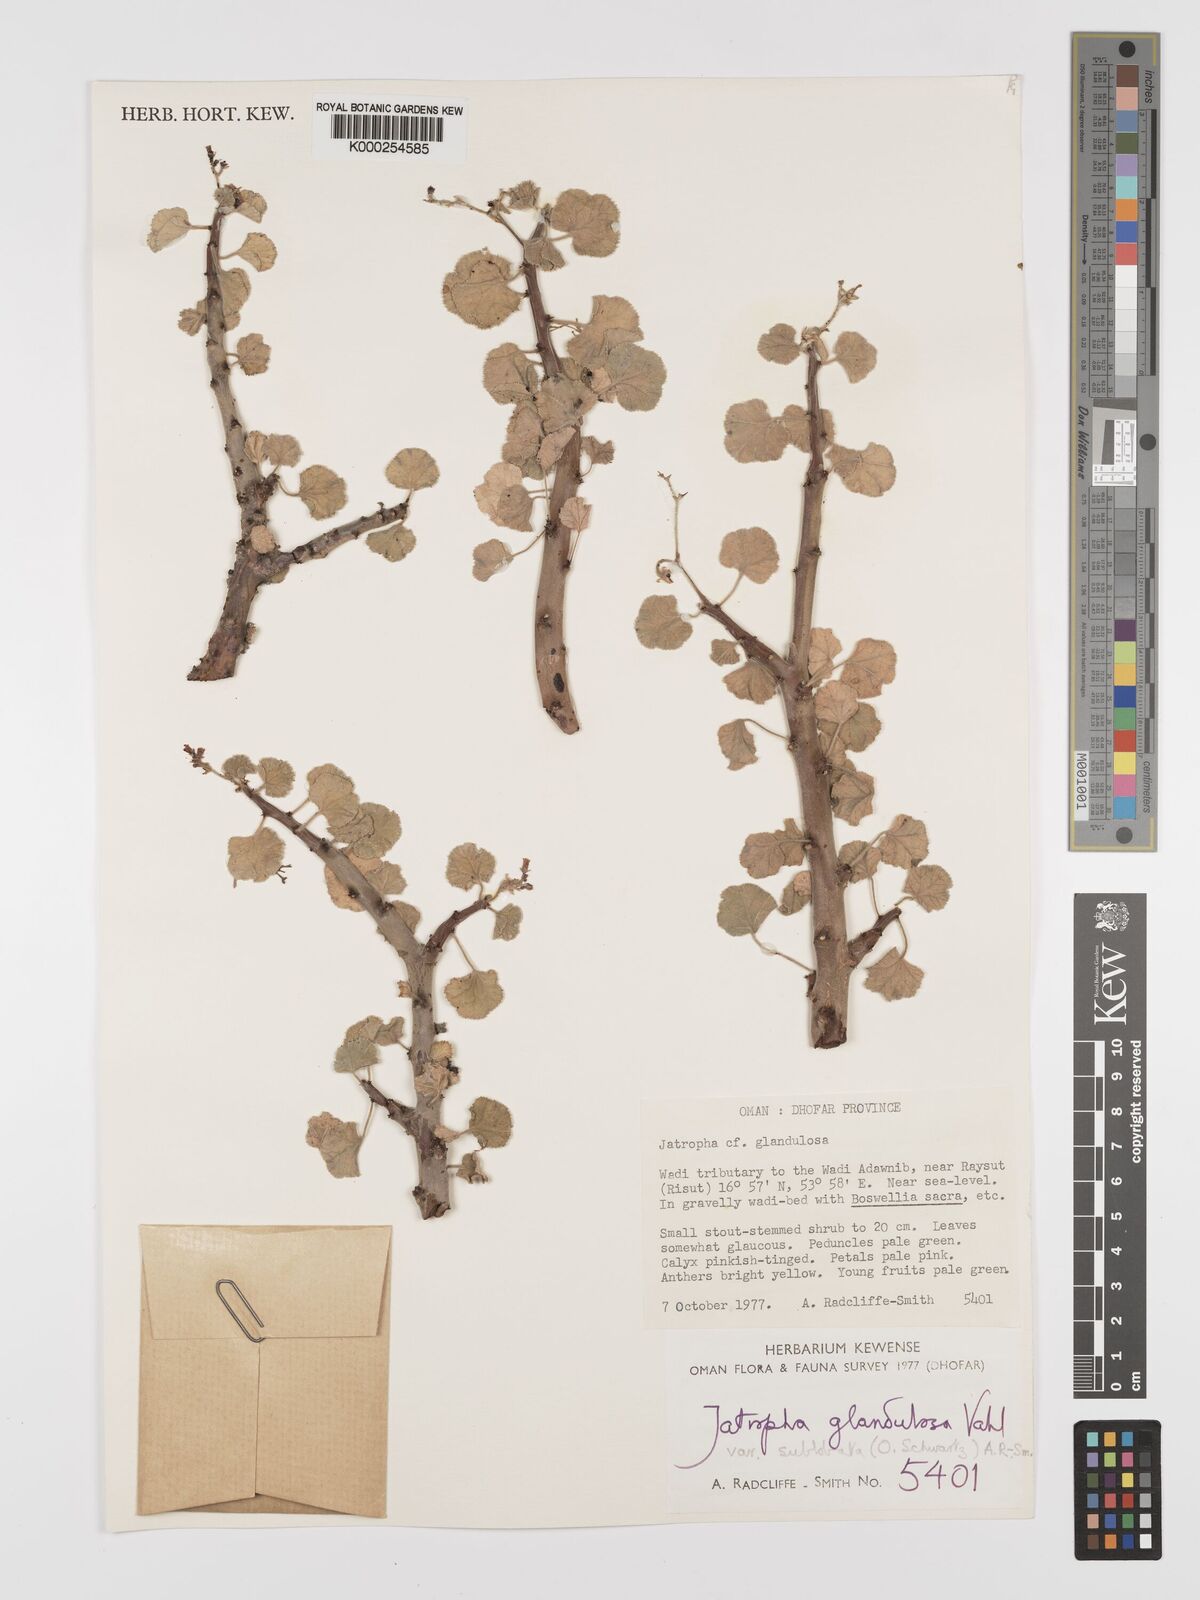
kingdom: Plantae
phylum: Tracheophyta
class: Magnoliopsida
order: Malpighiales
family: Euphorbiaceae
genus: Jatropha
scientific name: Jatropha pelargoniifolia
